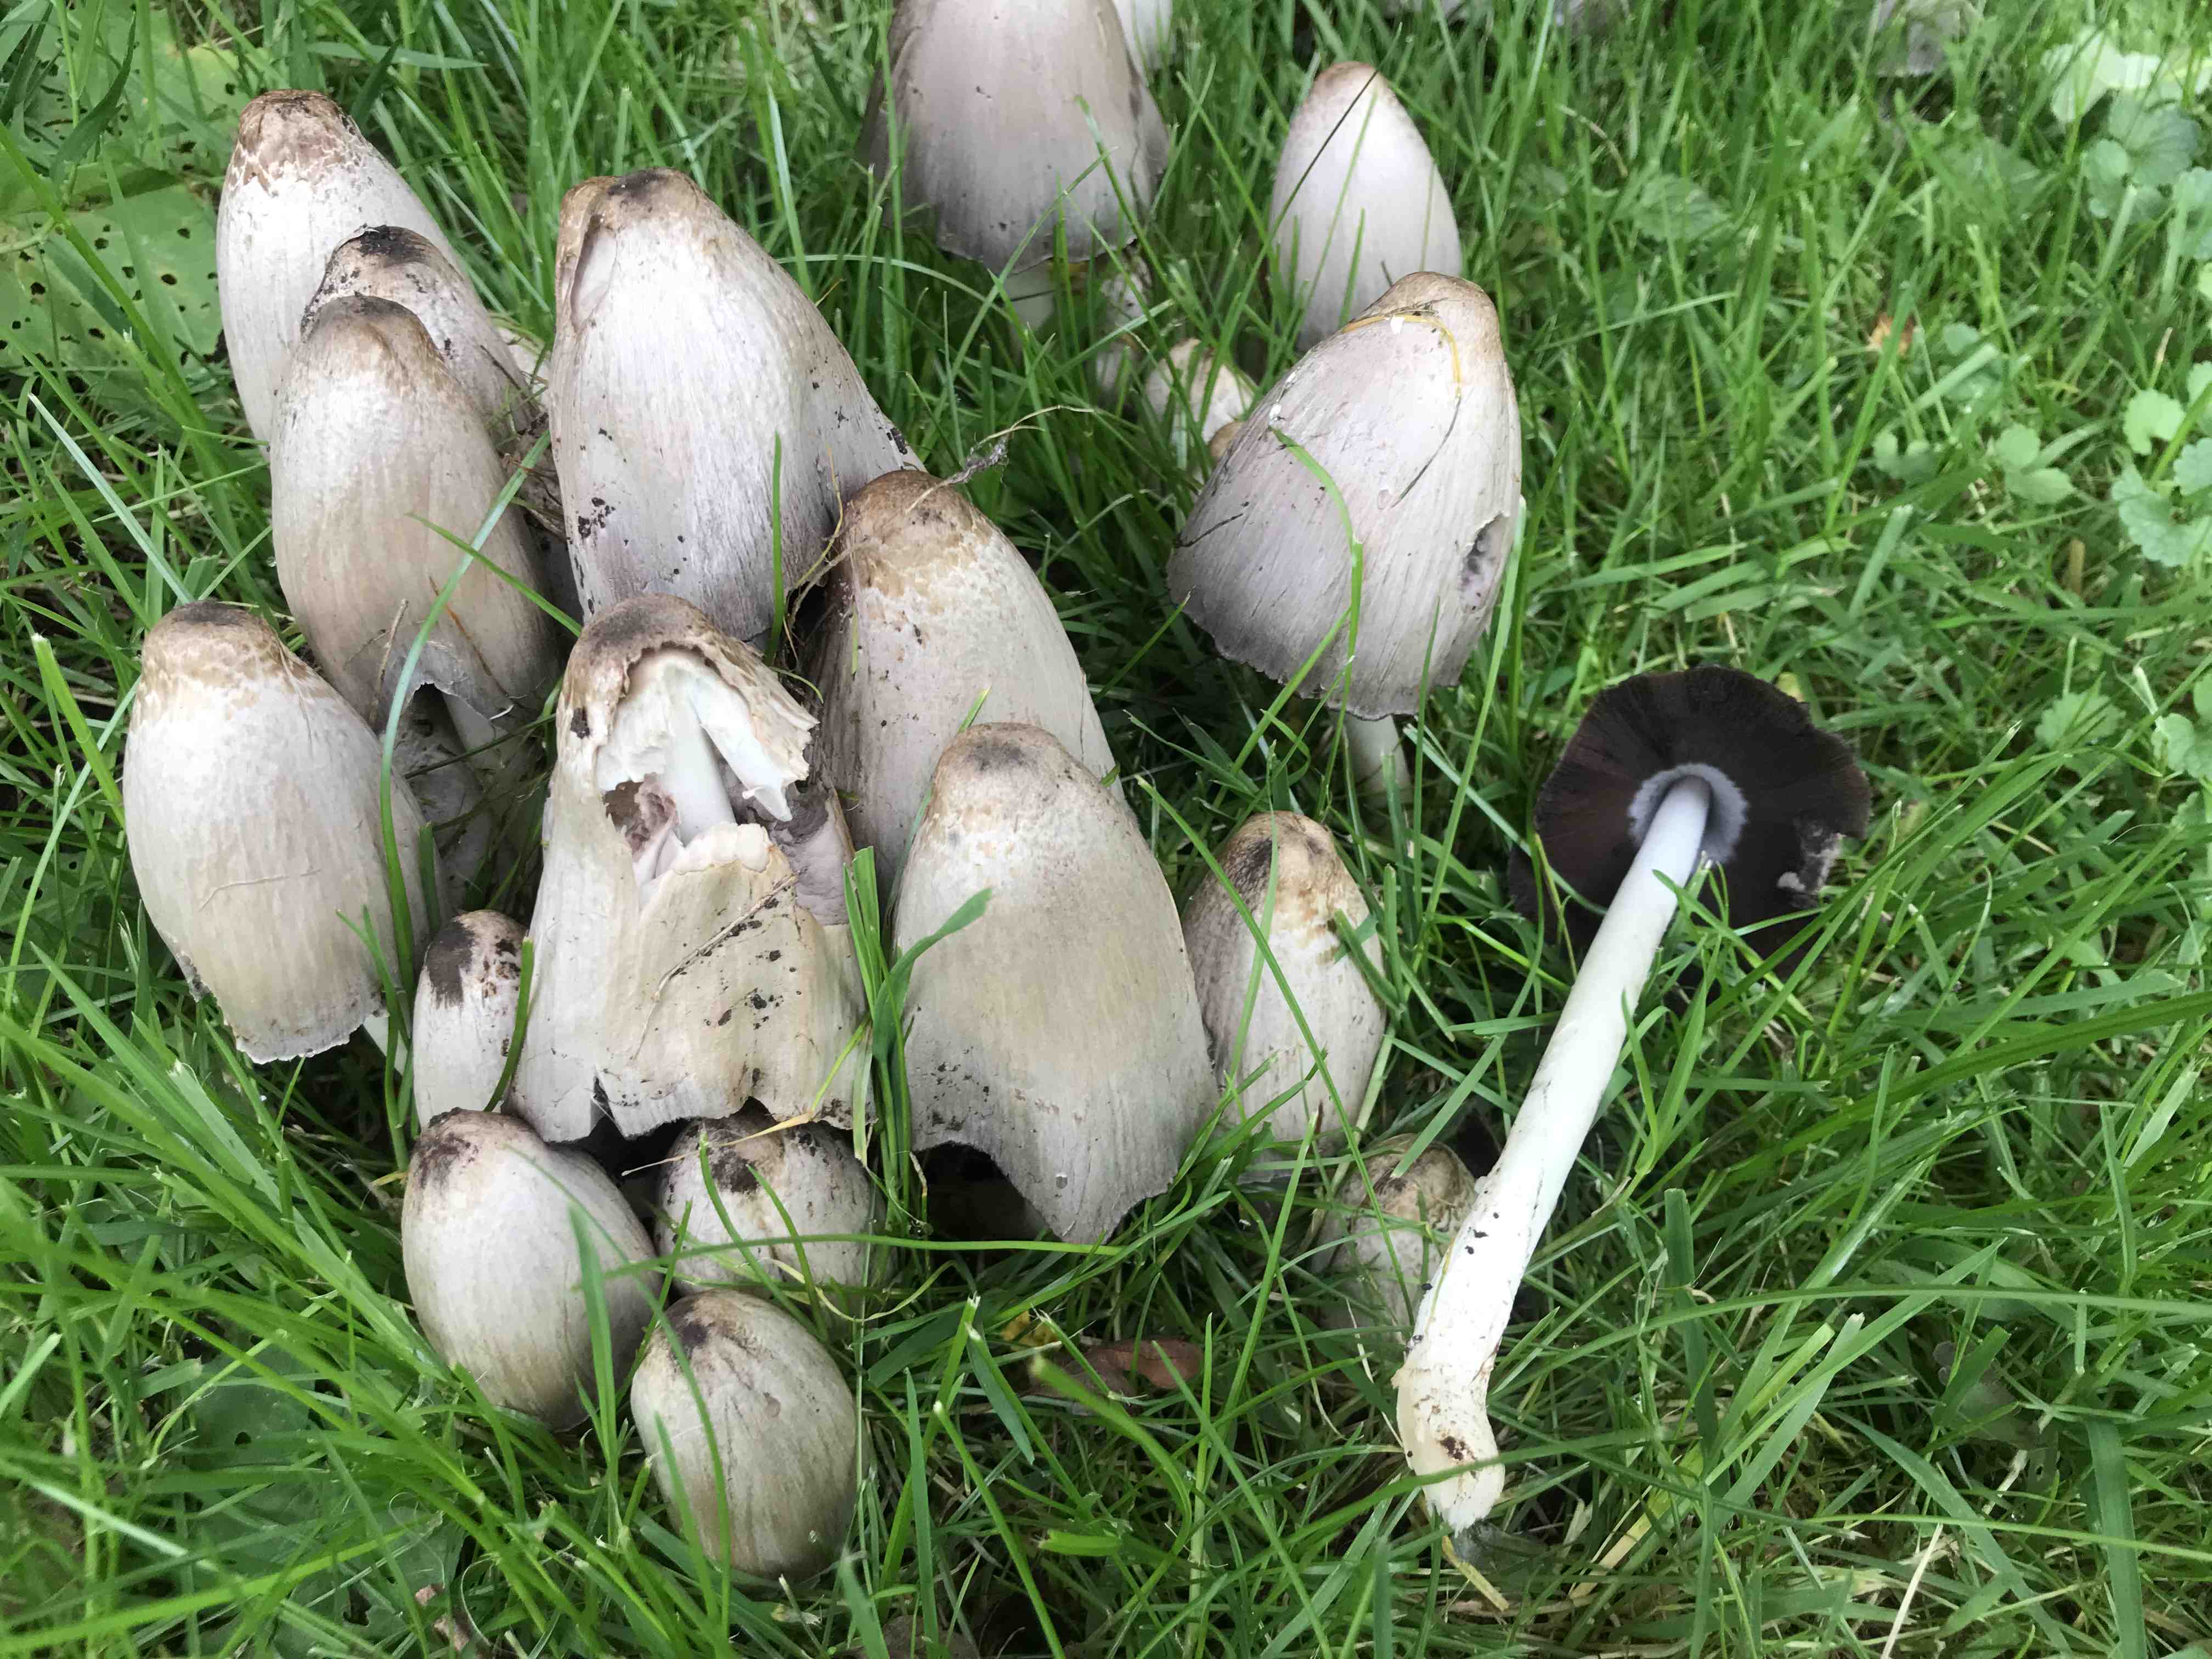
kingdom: Fungi
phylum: Basidiomycota
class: Agaricomycetes
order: Agaricales
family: Psathyrellaceae
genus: Coprinopsis
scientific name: Coprinopsis
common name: blækhat
